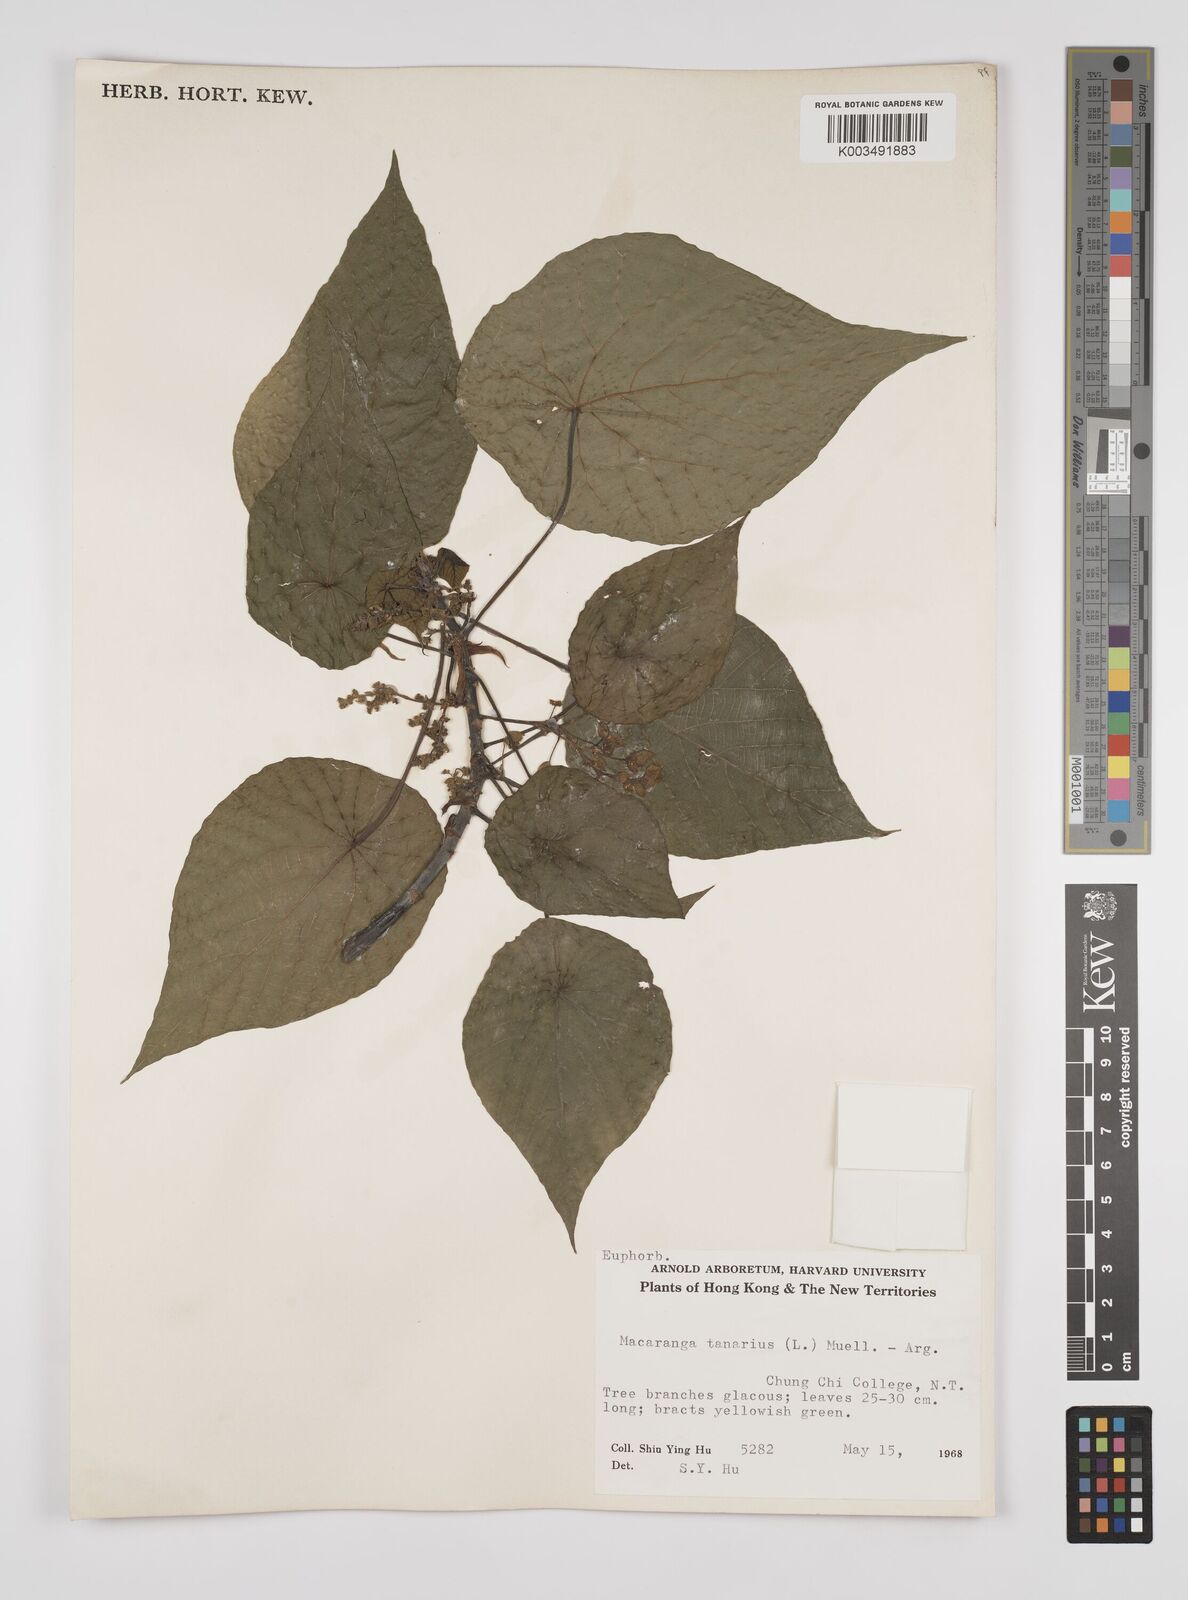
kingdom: Plantae
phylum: Tracheophyta
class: Magnoliopsida
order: Malpighiales
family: Euphorbiaceae
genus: Macaranga
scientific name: Macaranga tanarius
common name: Parasol leaf tree
